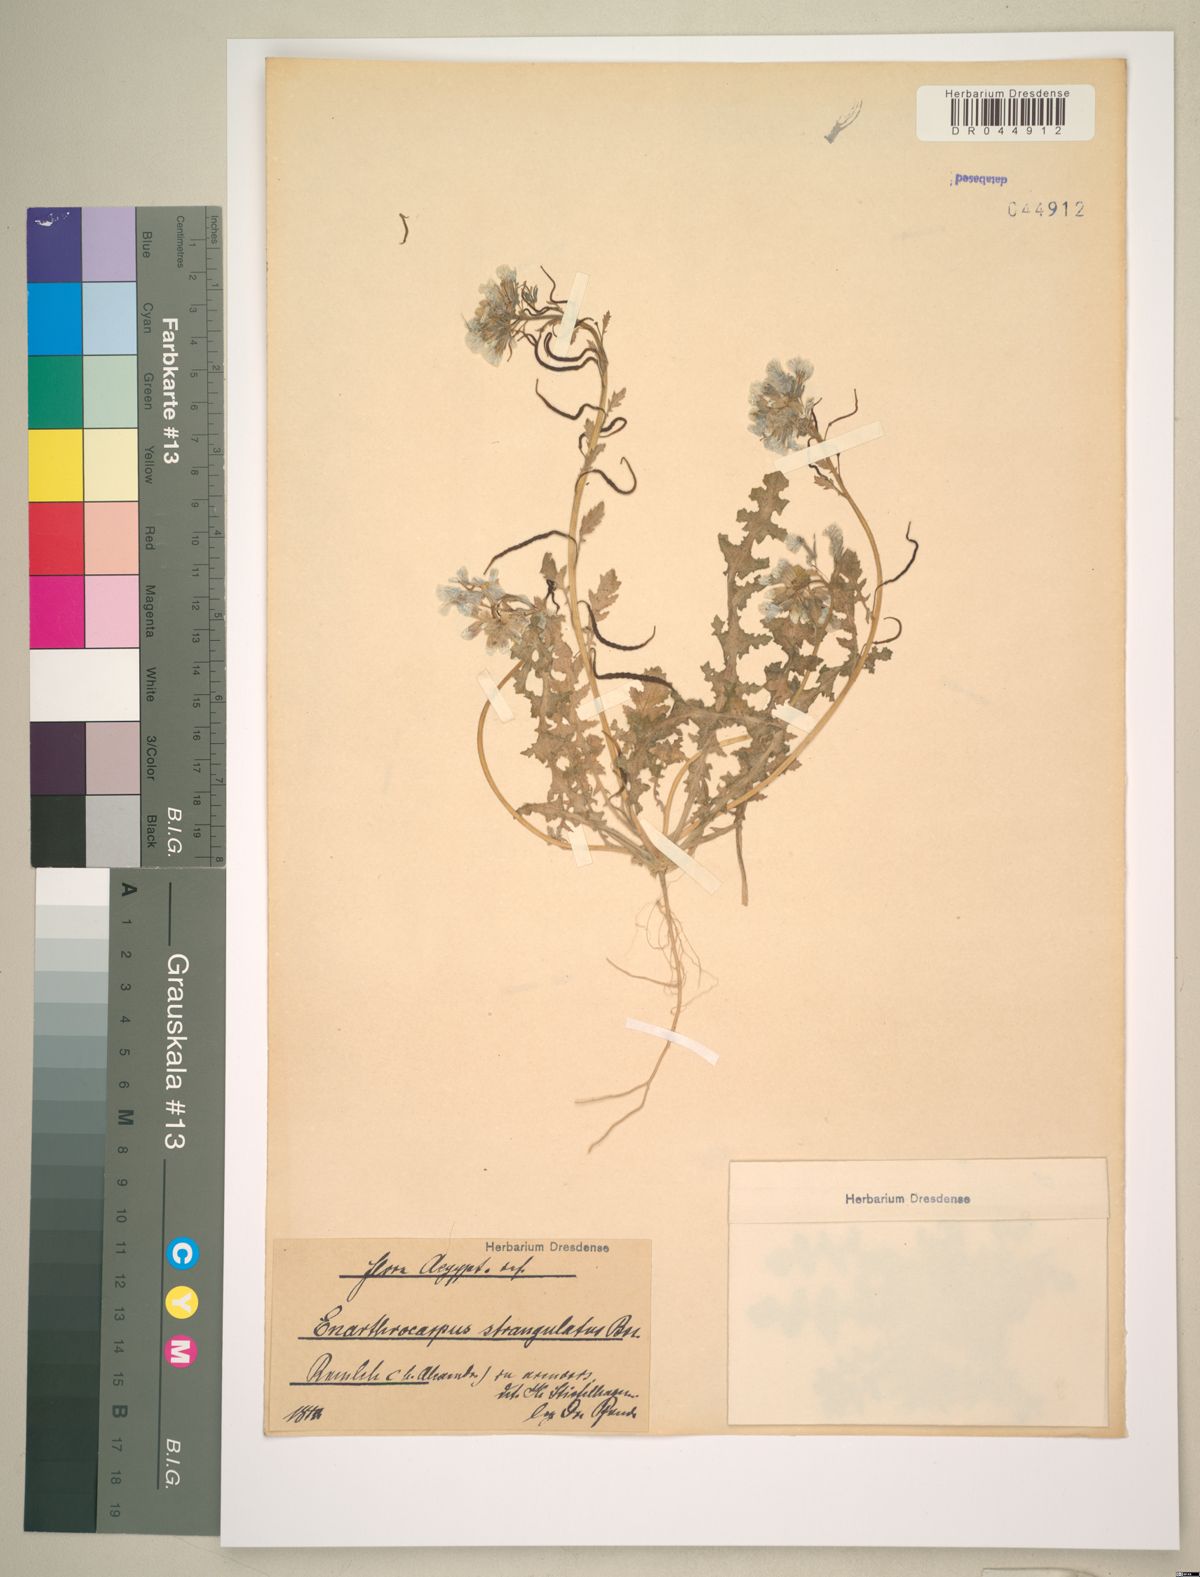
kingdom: Plantae
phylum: Tracheophyta
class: Magnoliopsida
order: Brassicales
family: Brassicaceae
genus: Enarthrocarpus
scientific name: Enarthrocarpus strangulatus
